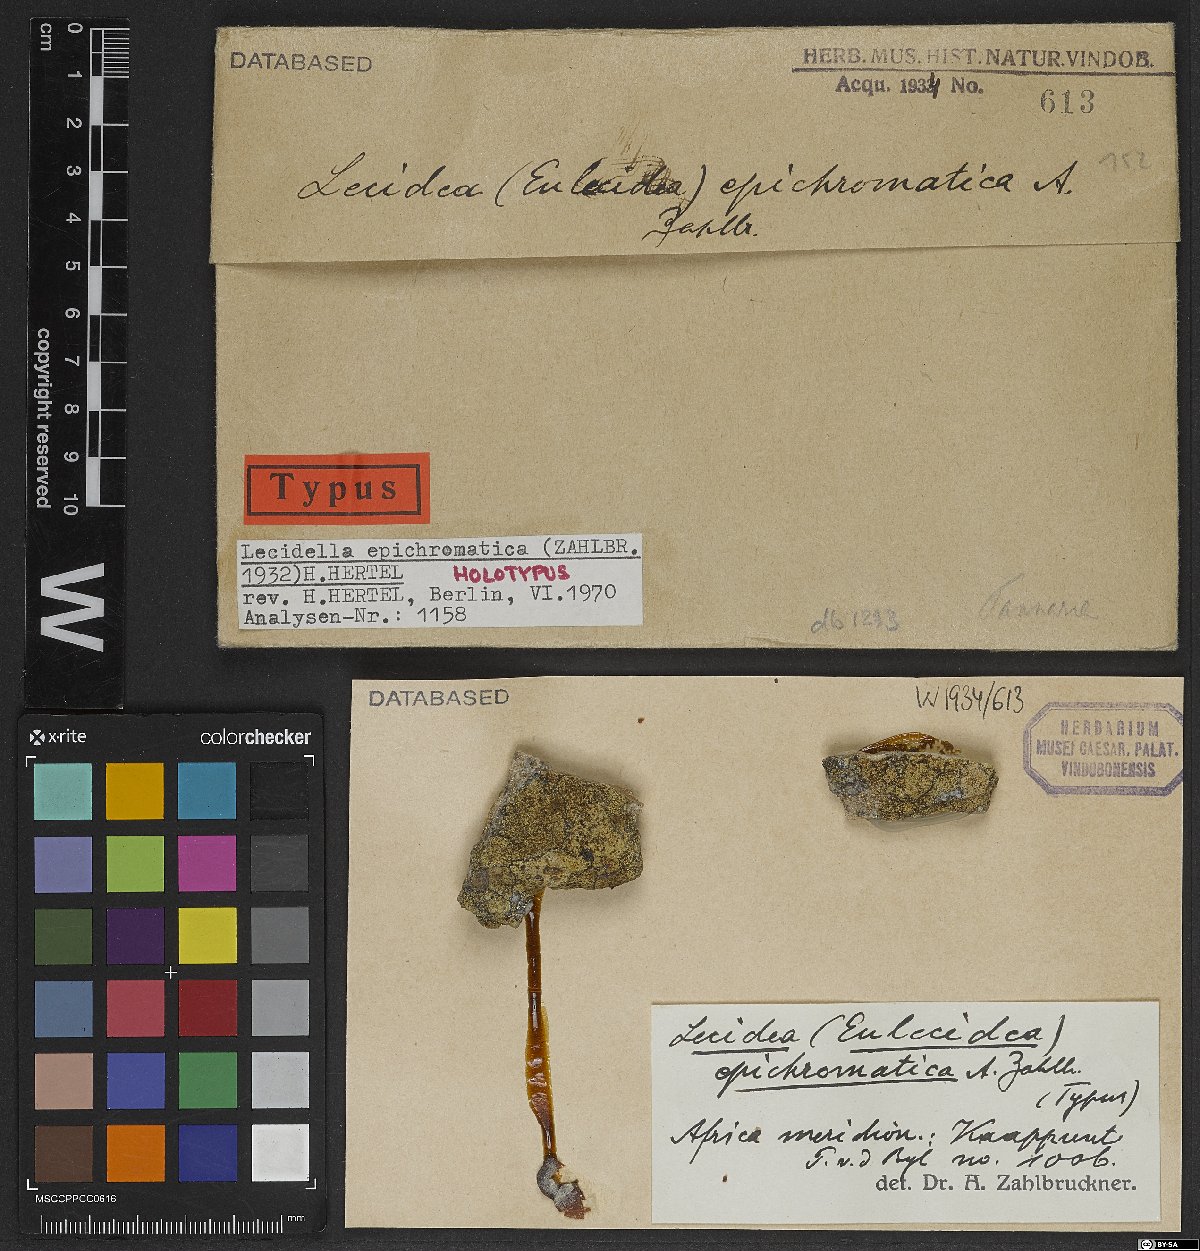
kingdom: Fungi
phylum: Ascomycota
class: Lecanoromycetes
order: Lecideales
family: Lecideaceae
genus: Lecidea
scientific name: Lecidea
